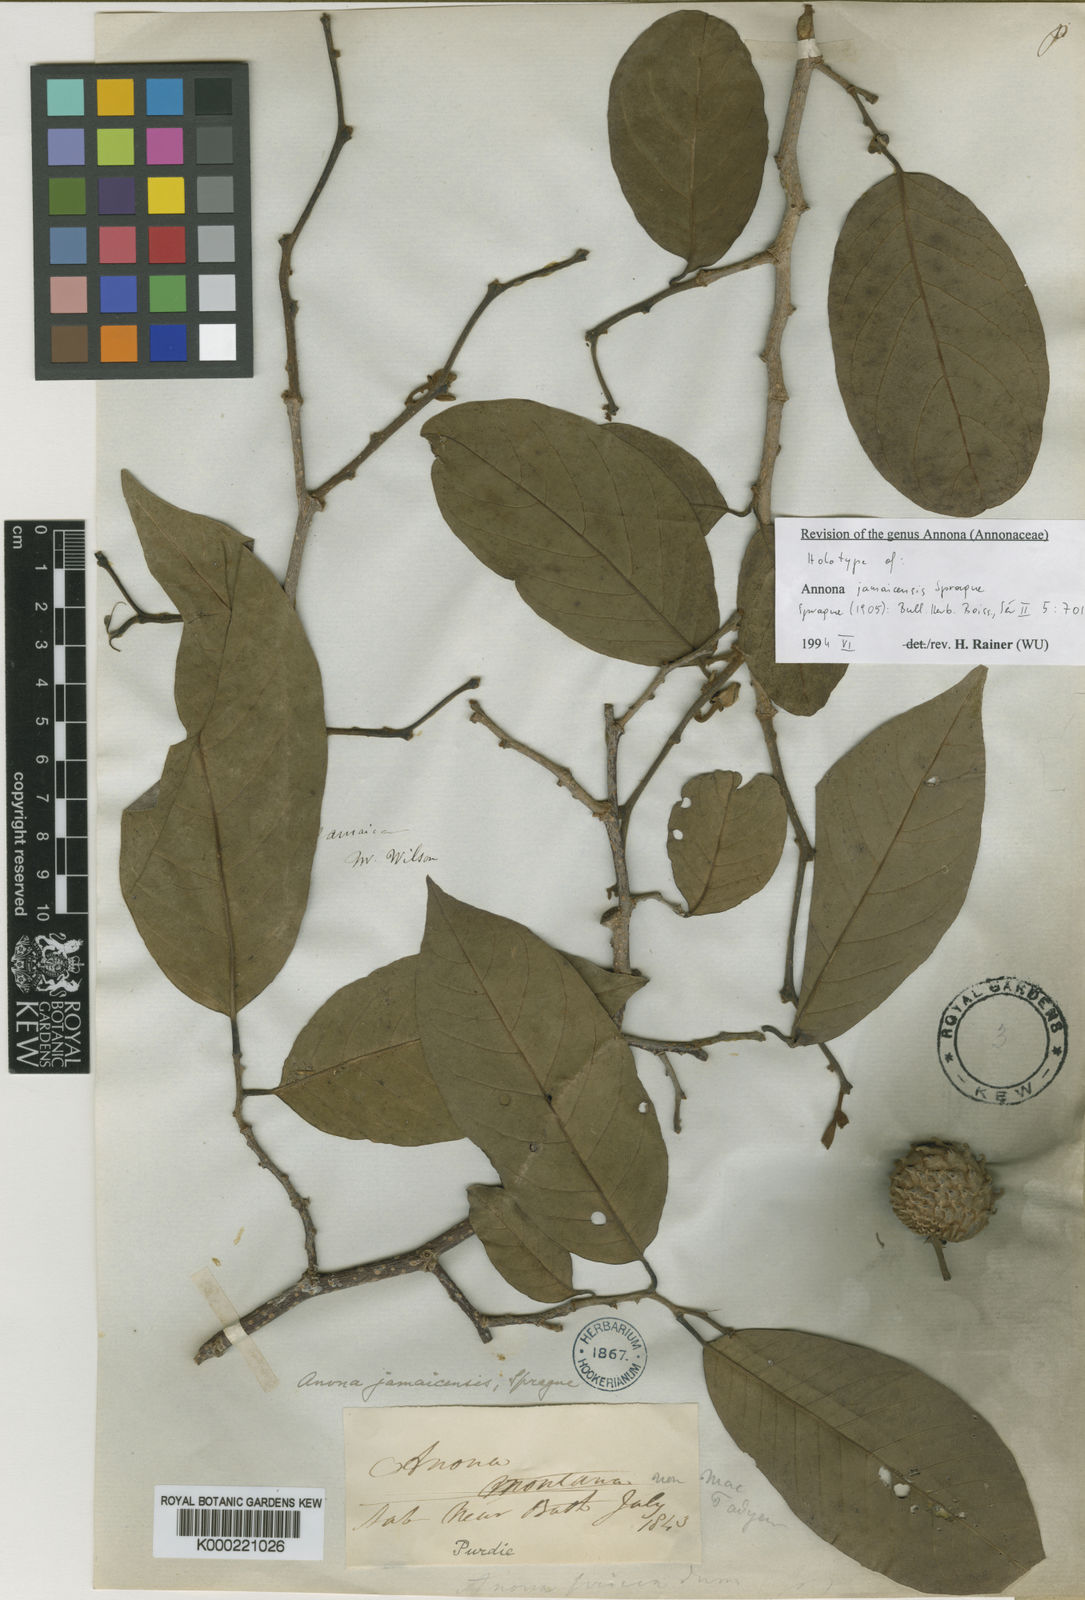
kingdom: Plantae
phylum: Tracheophyta
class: Magnoliopsida
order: Magnoliales
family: Annonaceae
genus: Annona
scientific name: Annona jamaicensis
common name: Mountain soursop
